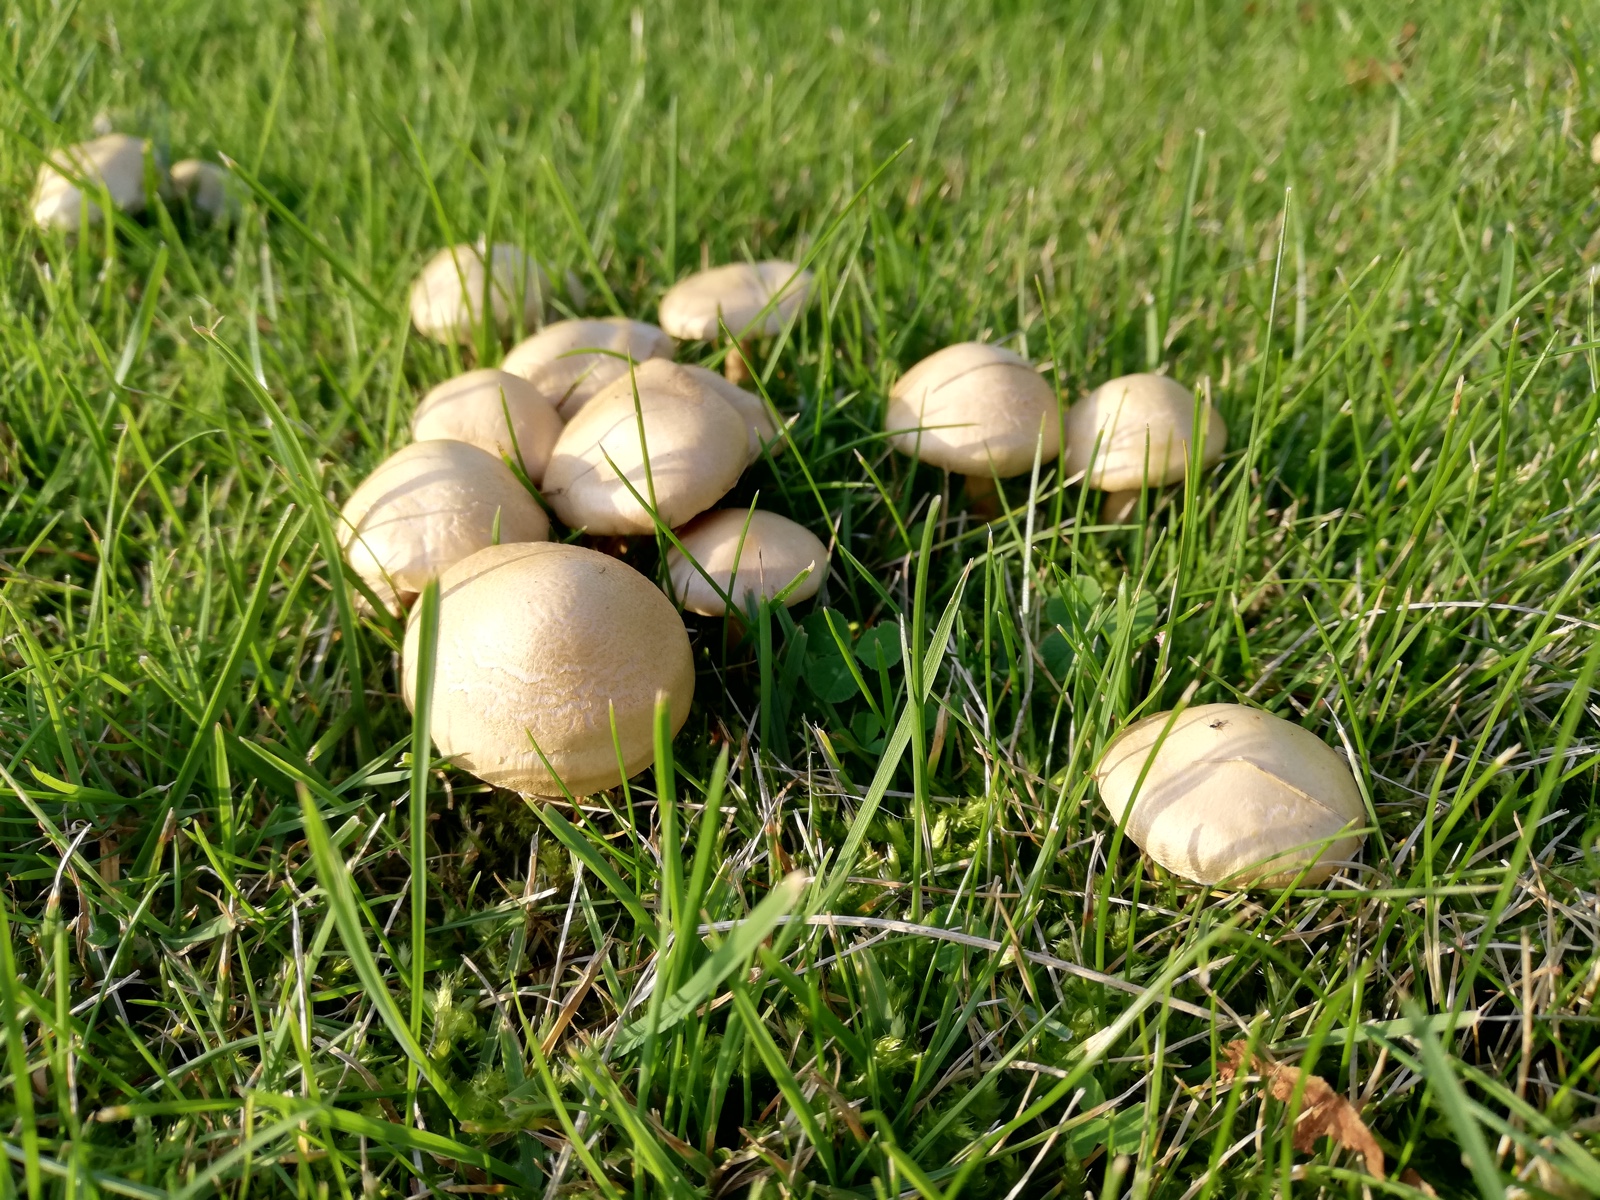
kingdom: Fungi
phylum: Basidiomycota
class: Agaricomycetes
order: Agaricales
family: Hymenogastraceae
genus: Hebeloma
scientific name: Hebeloma
